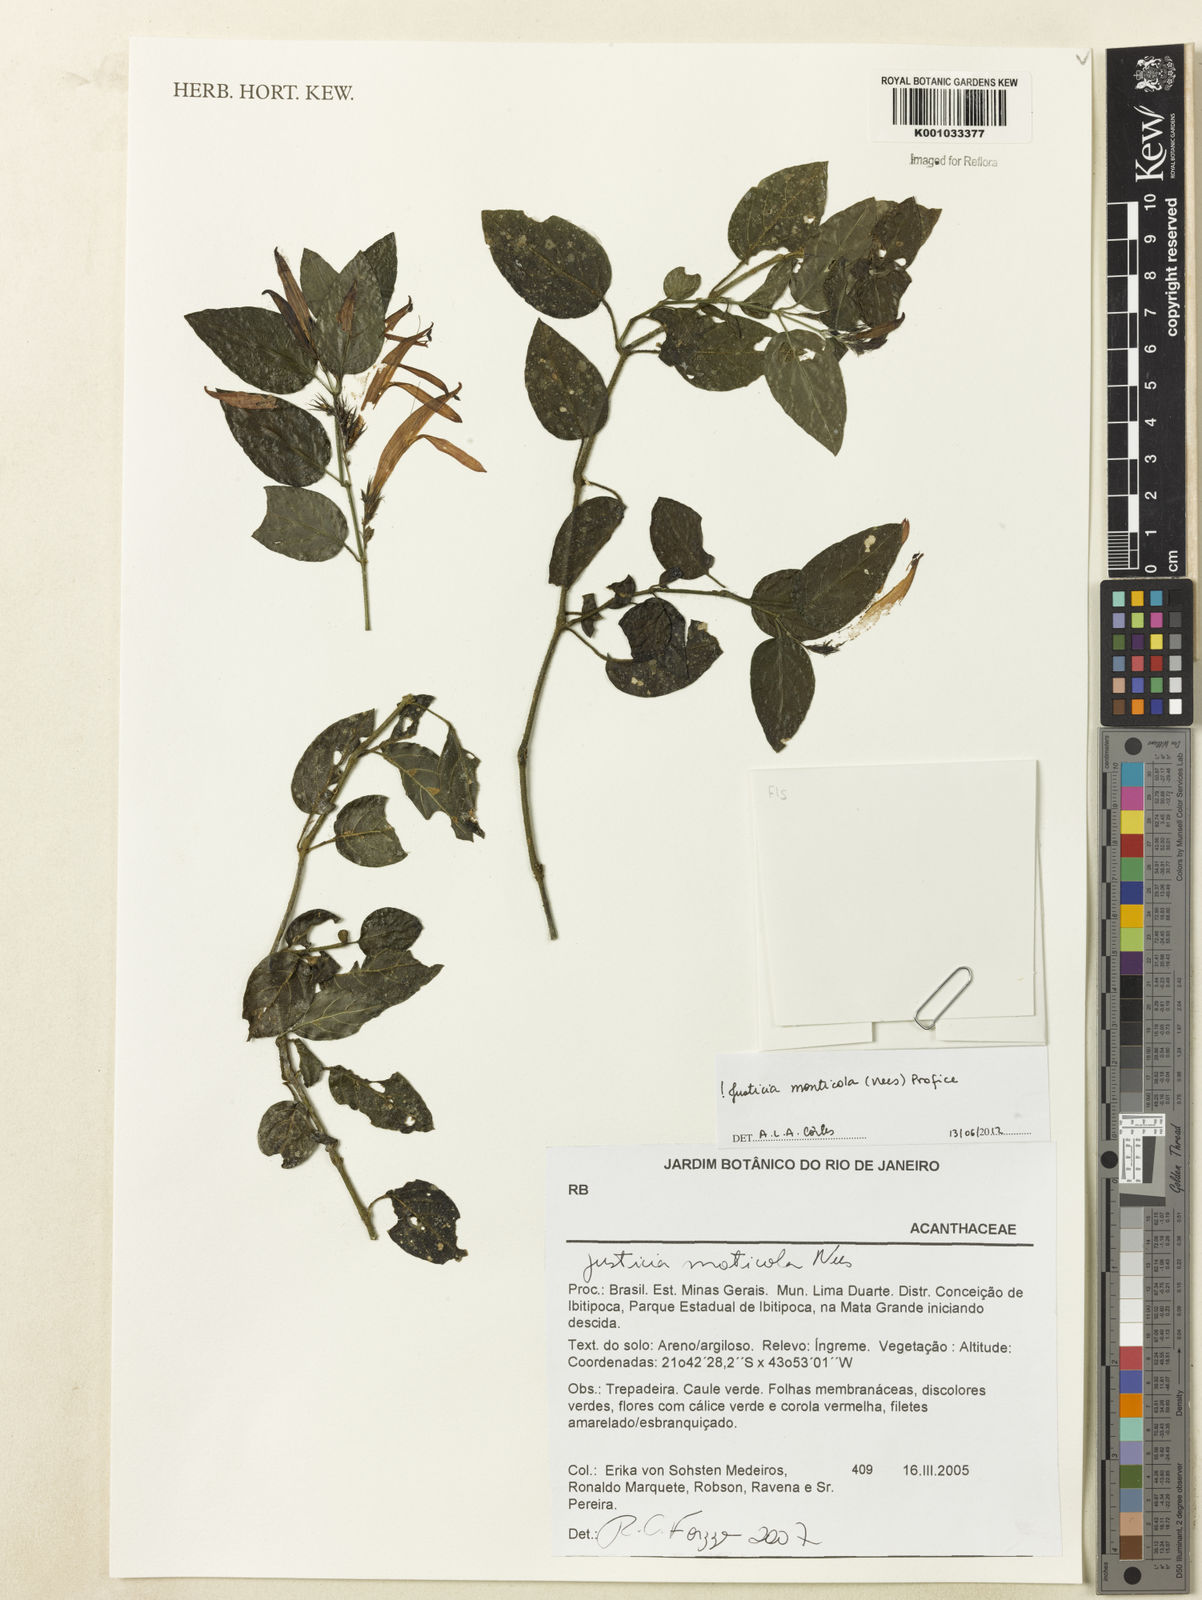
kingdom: Plantae
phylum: Tracheophyta
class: Magnoliopsida
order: Lamiales
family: Acanthaceae
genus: Justicia
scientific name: Justicia monticola
